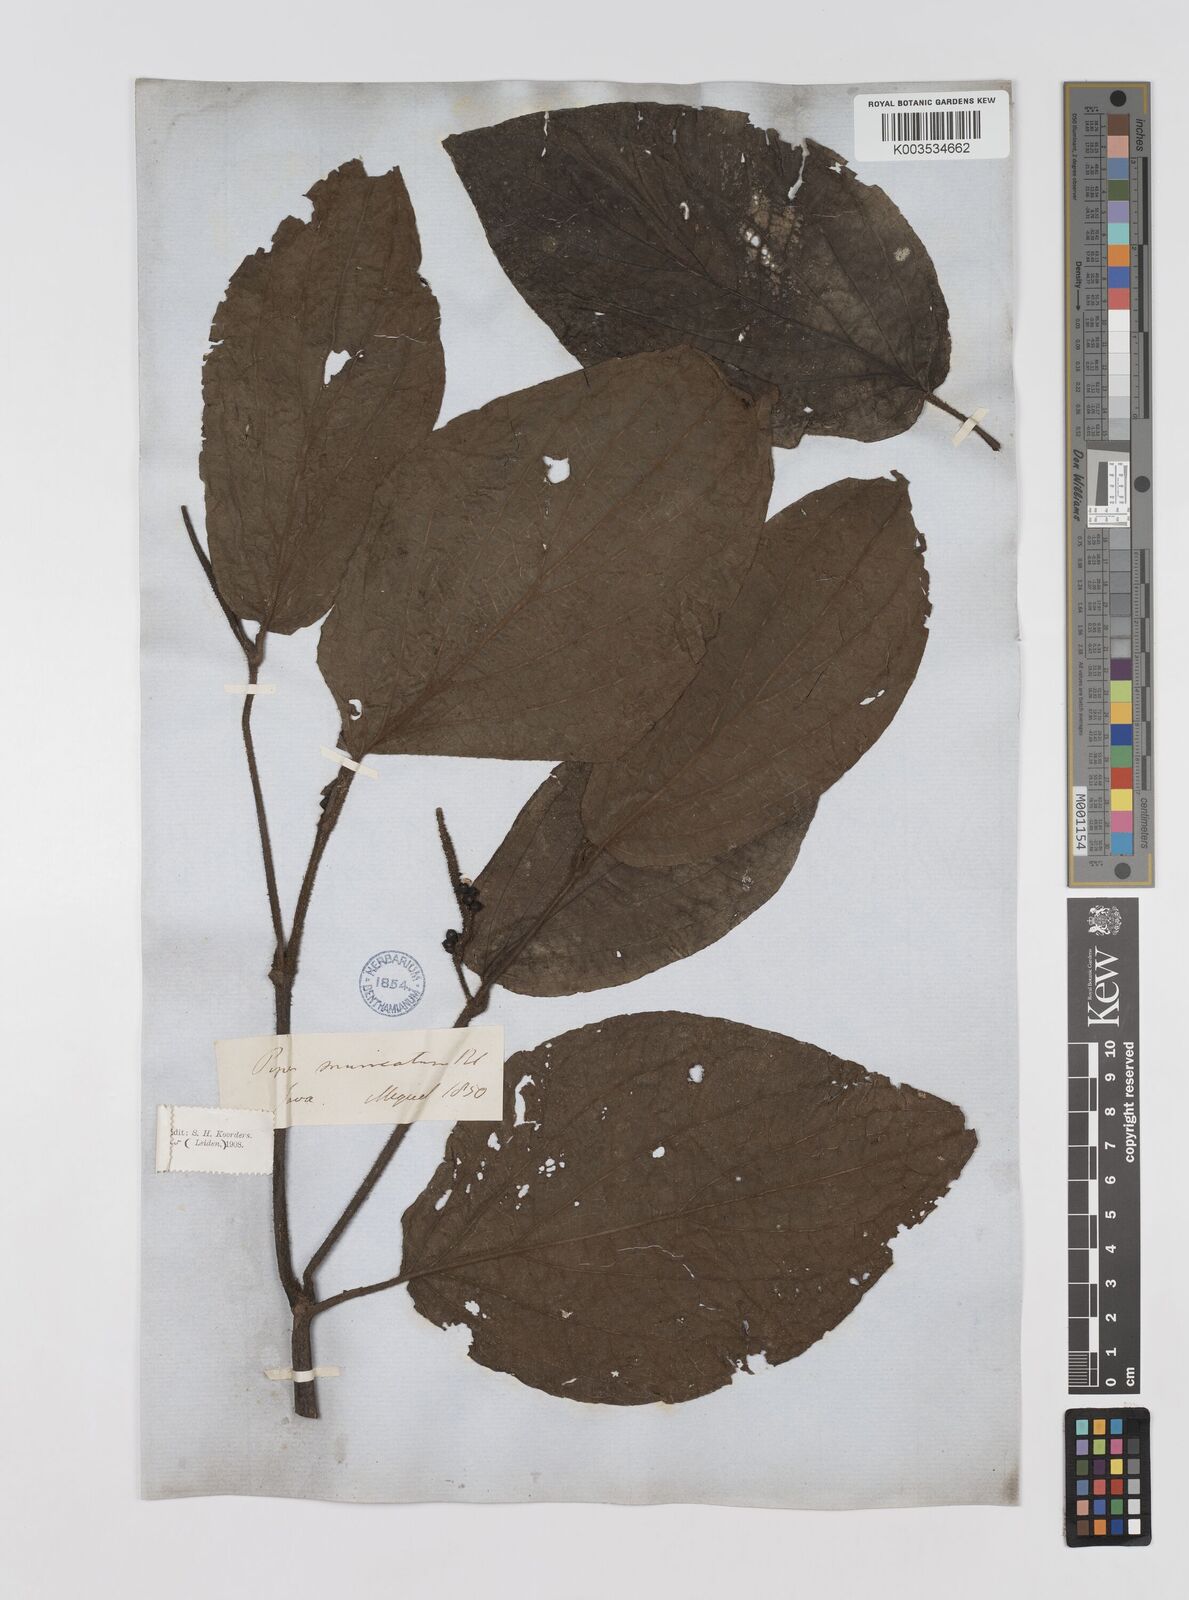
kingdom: Plantae
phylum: Tracheophyta
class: Magnoliopsida
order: Piperales
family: Piperaceae
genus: Piper
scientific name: Piper muricatum
